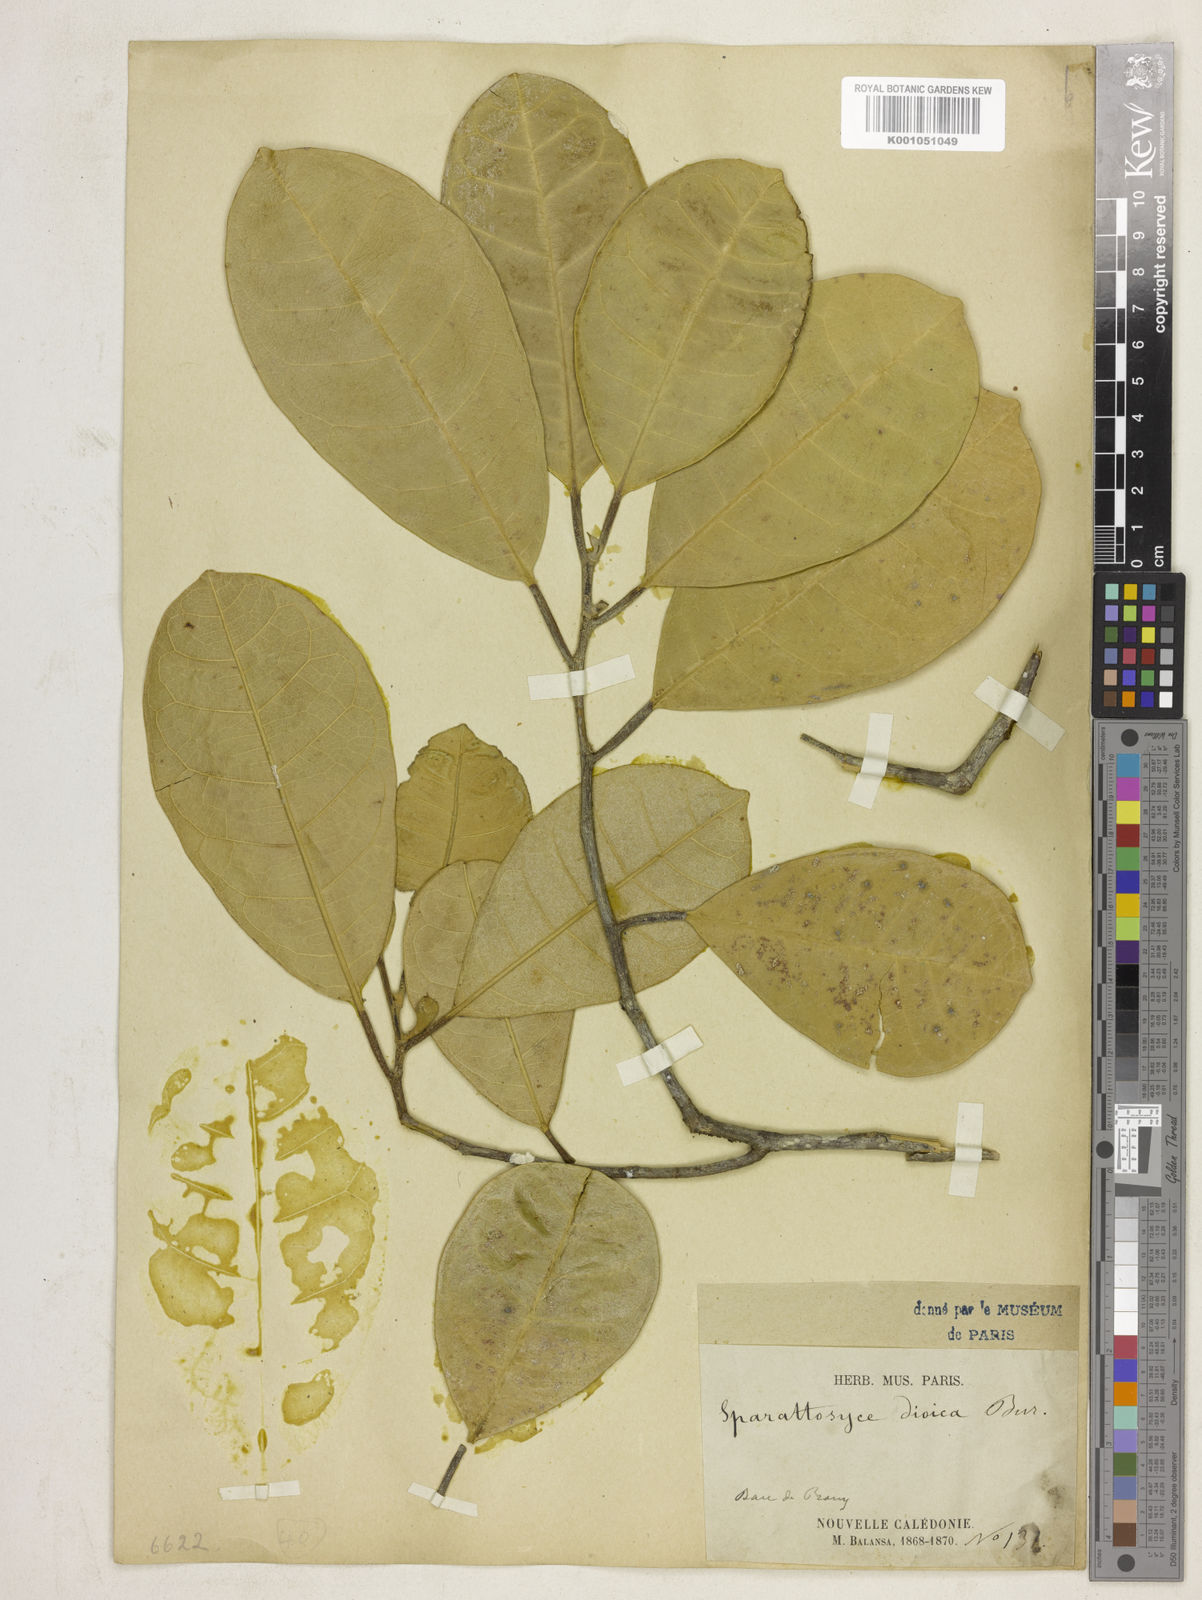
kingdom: Plantae
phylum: Tracheophyta
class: Magnoliopsida
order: Rosales
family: Moraceae
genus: Sparattosyce
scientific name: Sparattosyce dioica
